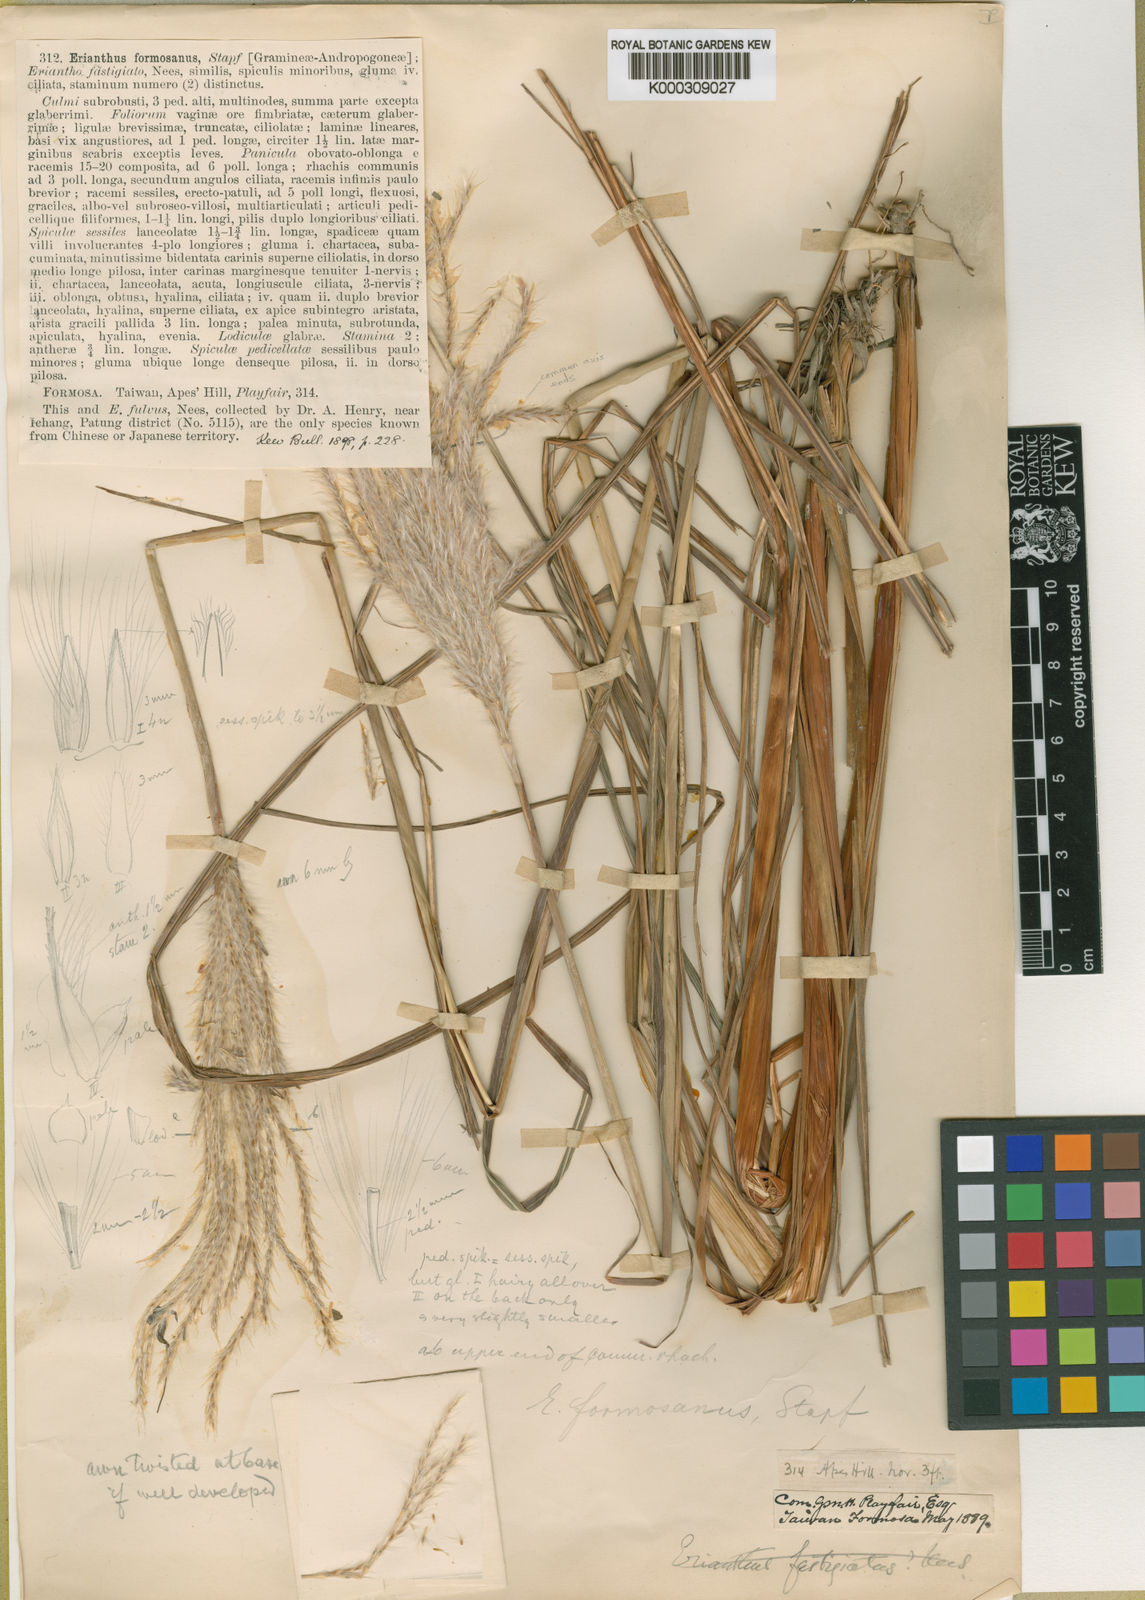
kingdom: Plantae
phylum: Tracheophyta
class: Liliopsida
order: Poales
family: Poaceae
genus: Saccharum
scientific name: Saccharum formosanum
